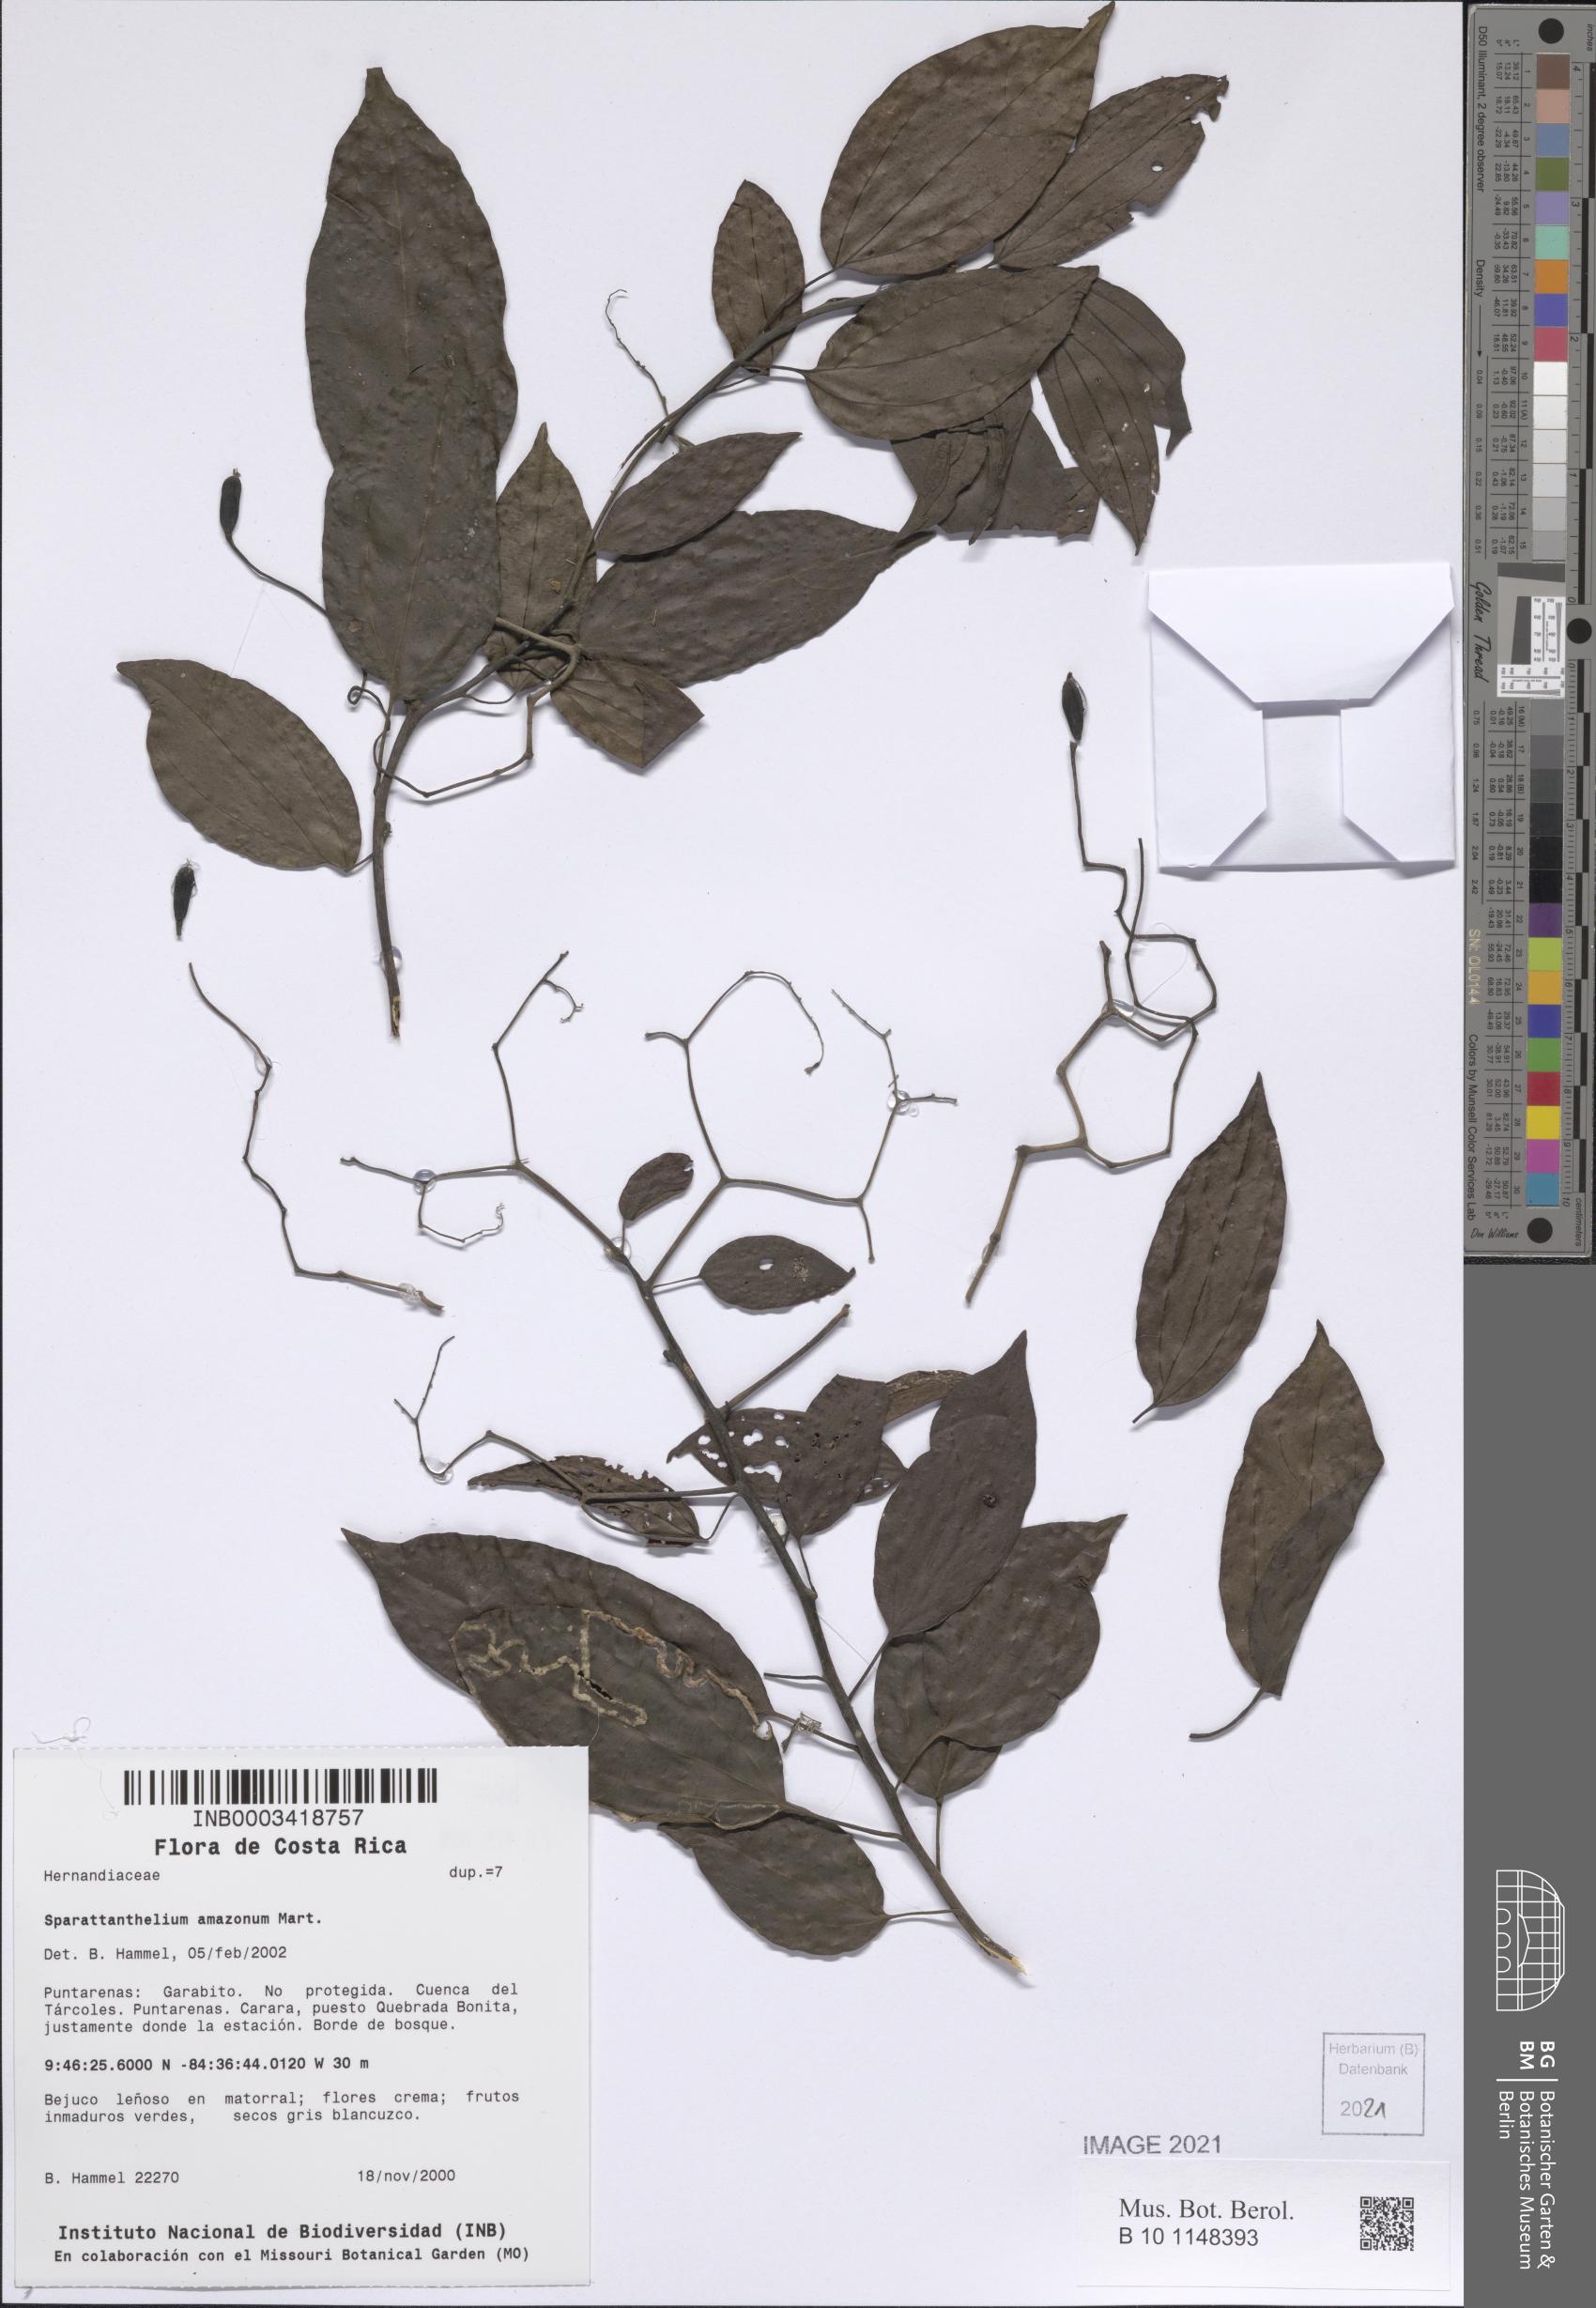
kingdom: Plantae
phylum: Tracheophyta
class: Magnoliopsida
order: Laurales
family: Hernandiaceae
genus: Sparattanthelium
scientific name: Sparattanthelium amazonum
